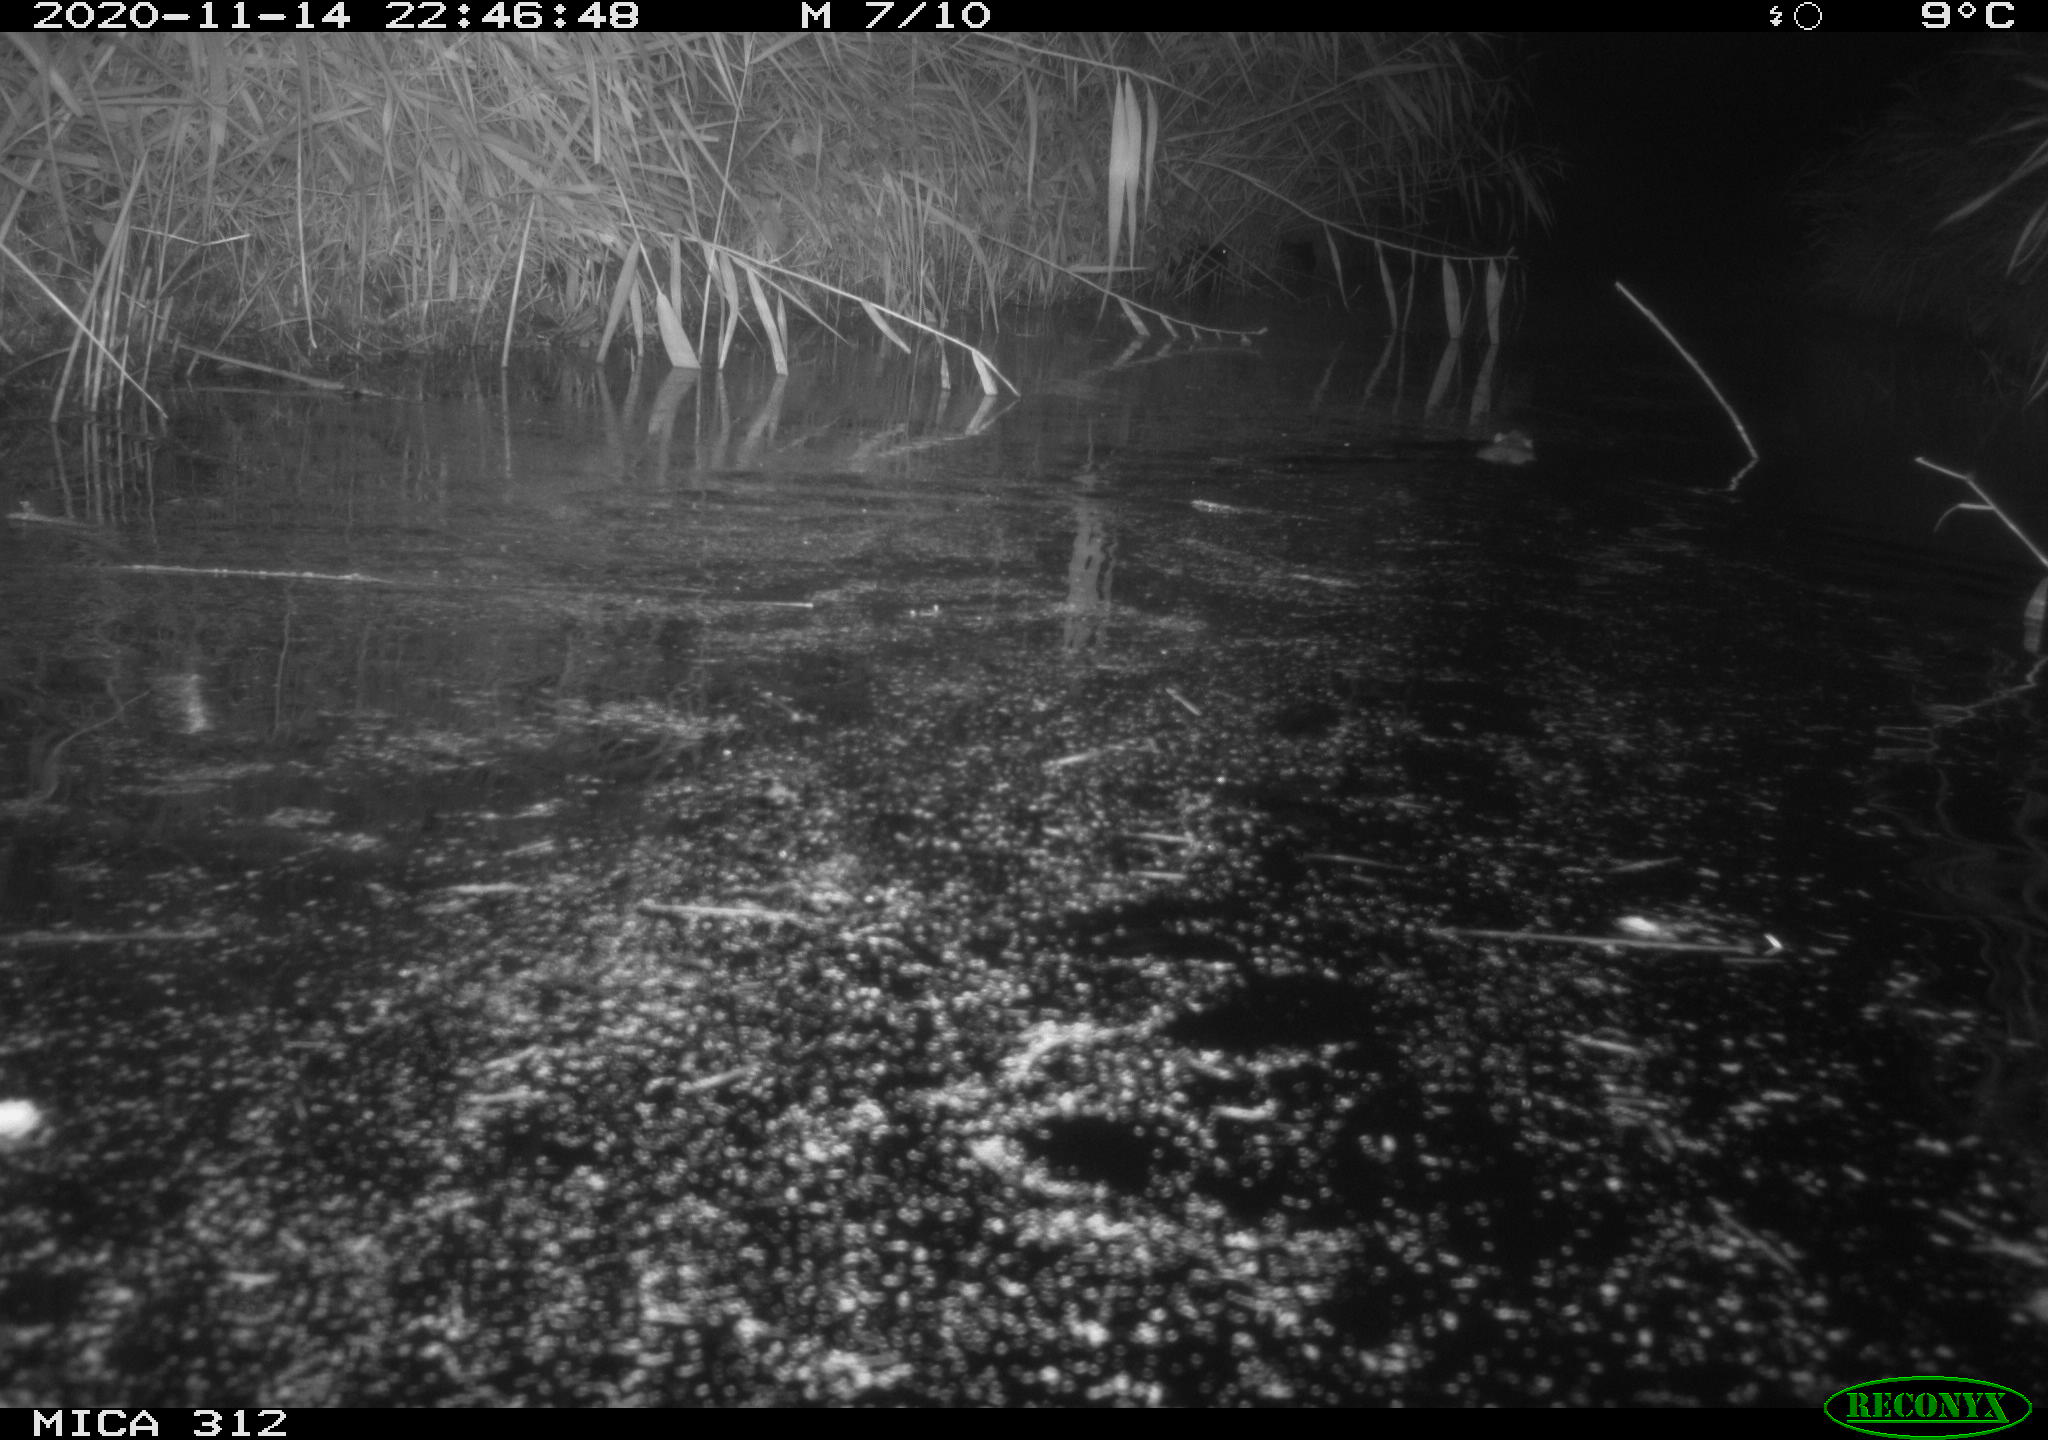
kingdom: Animalia
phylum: Chordata
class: Mammalia
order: Rodentia
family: Muridae
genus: Rattus
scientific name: Rattus norvegicus
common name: Brown rat
